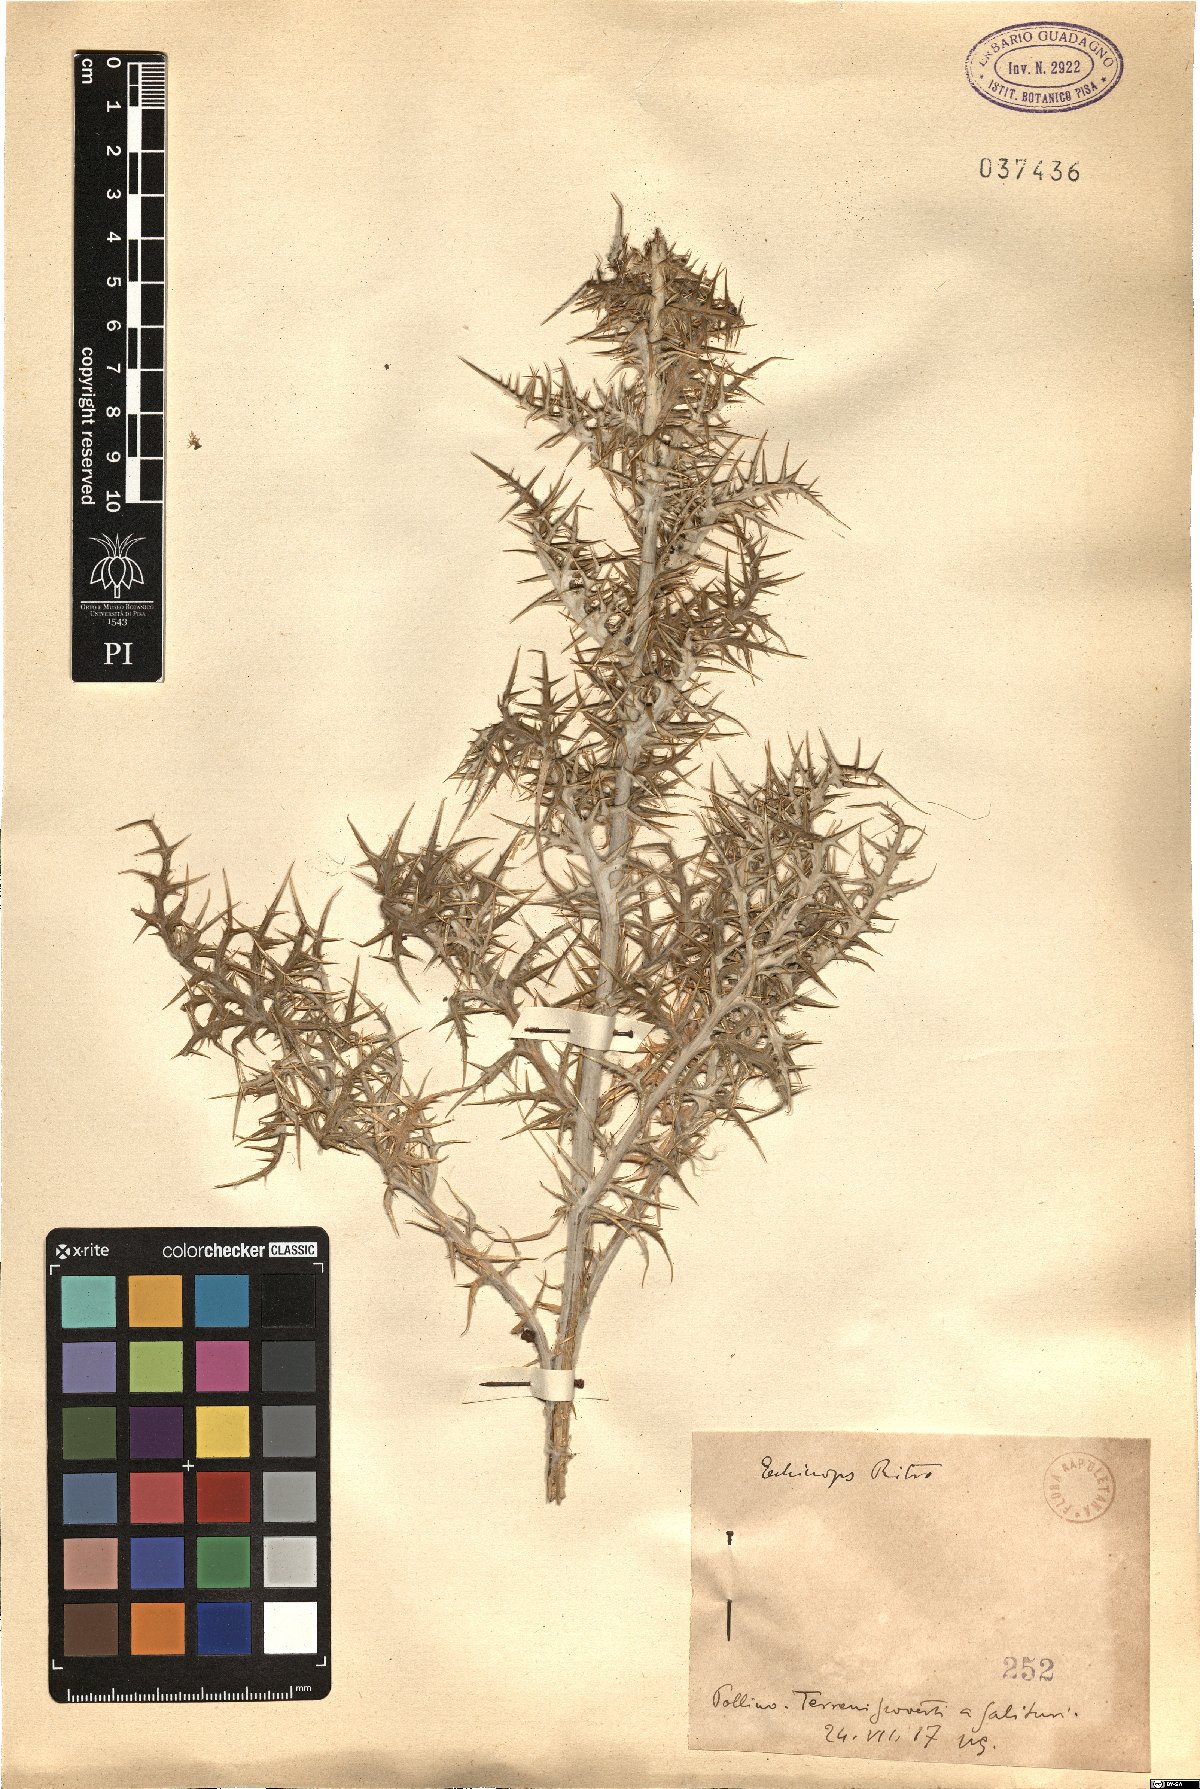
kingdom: Plantae
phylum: Tracheophyta
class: Magnoliopsida
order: Asterales
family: Asteraceae
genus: Echinops
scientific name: Echinops ritro
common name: Globe thistle
